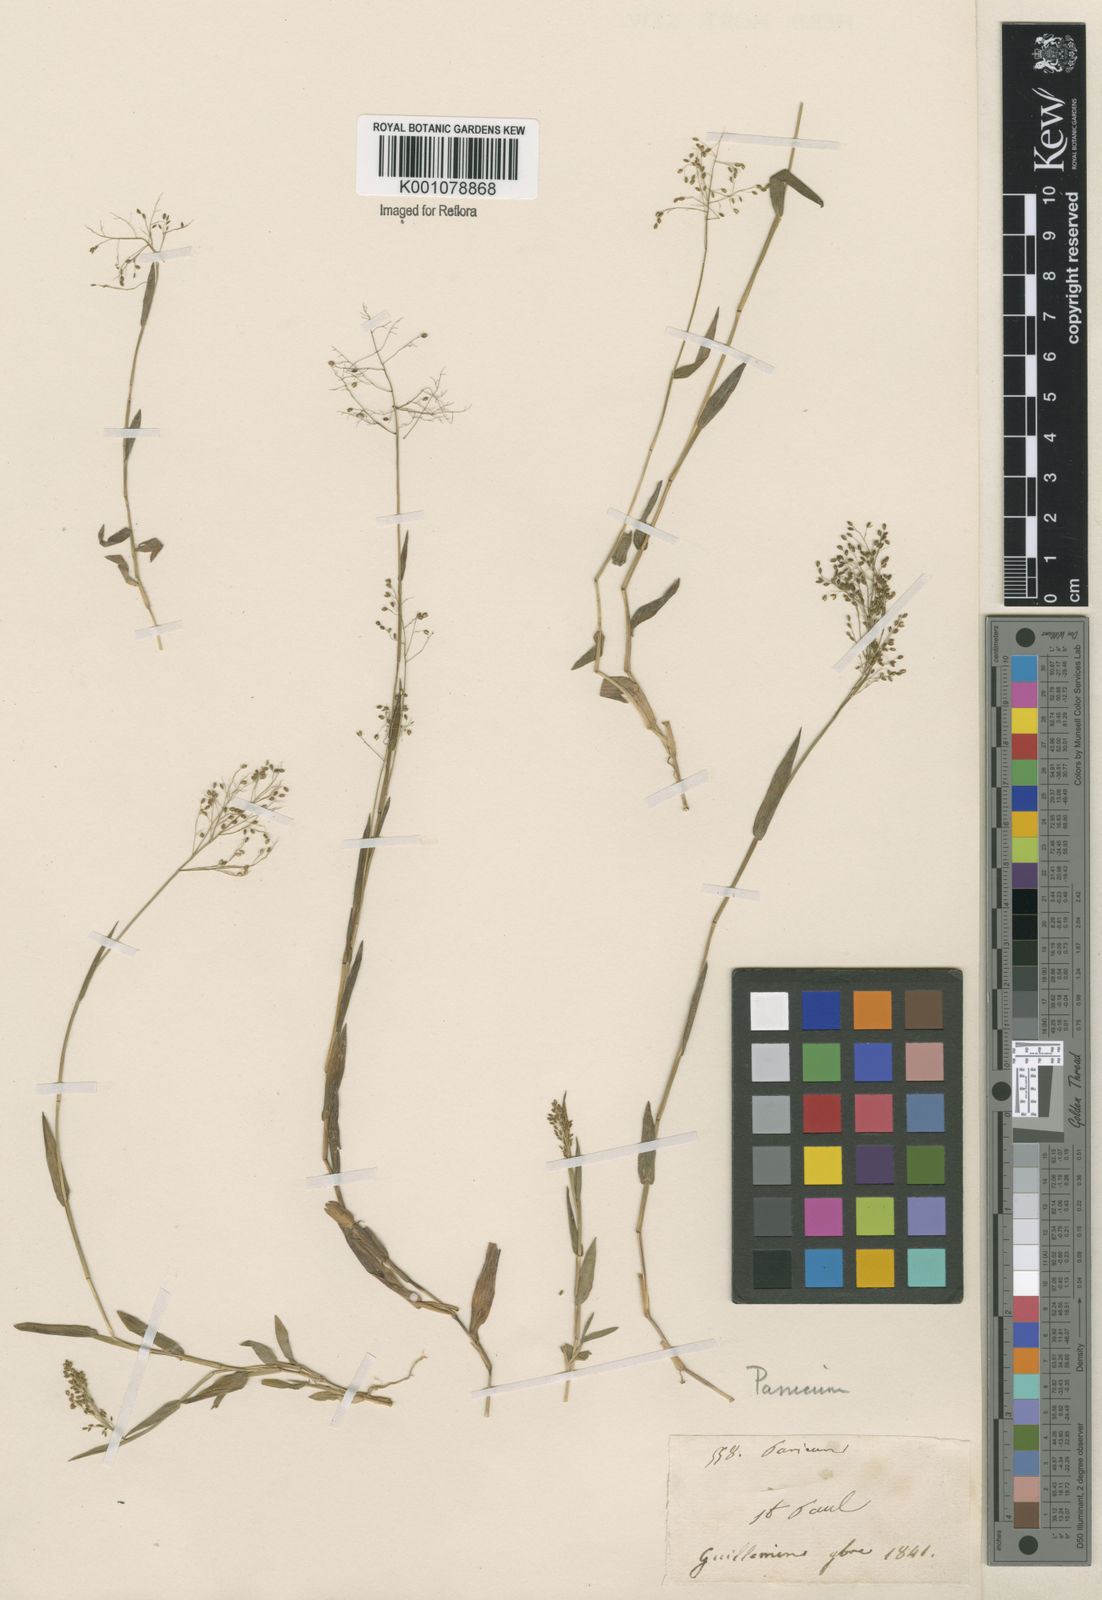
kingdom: Plantae
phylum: Tracheophyta
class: Liliopsida
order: Poales
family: Poaceae
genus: Trichanthecium
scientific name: Trichanthecium parvifolium
